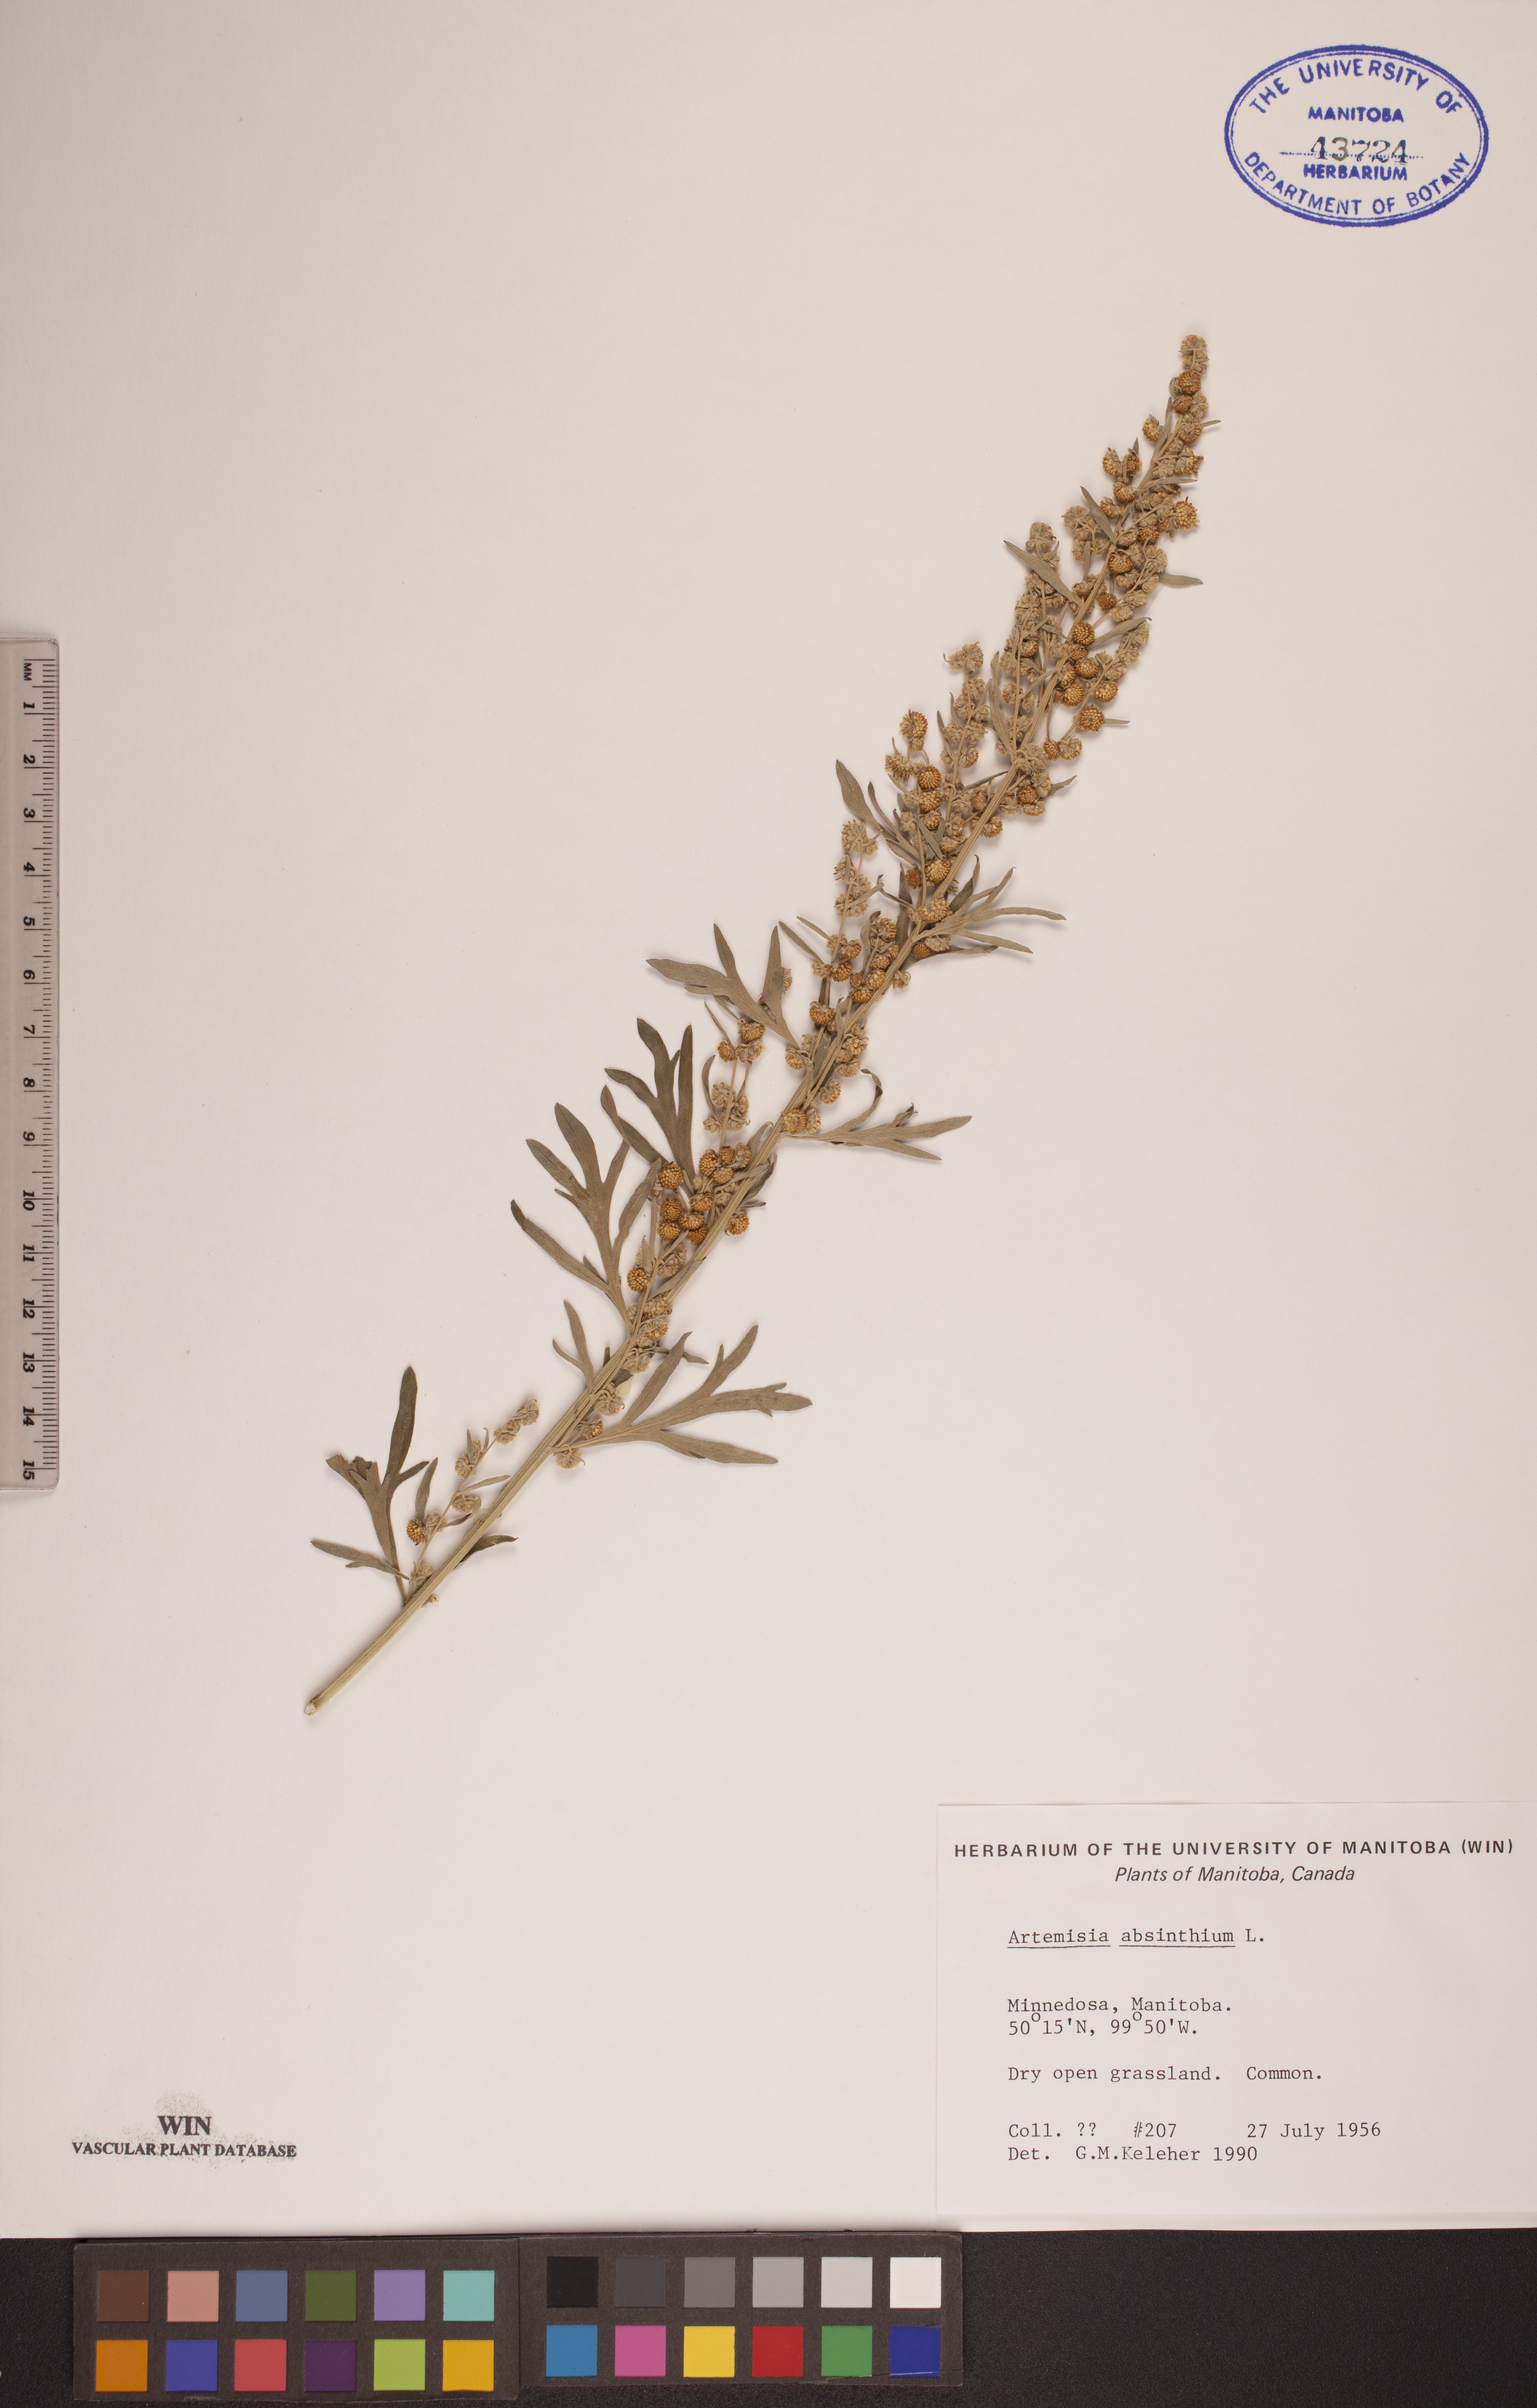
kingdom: Plantae
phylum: Tracheophyta
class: Magnoliopsida
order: Asterales
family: Asteraceae
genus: Artemisia
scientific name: Artemisia absinthium
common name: Wormwood
